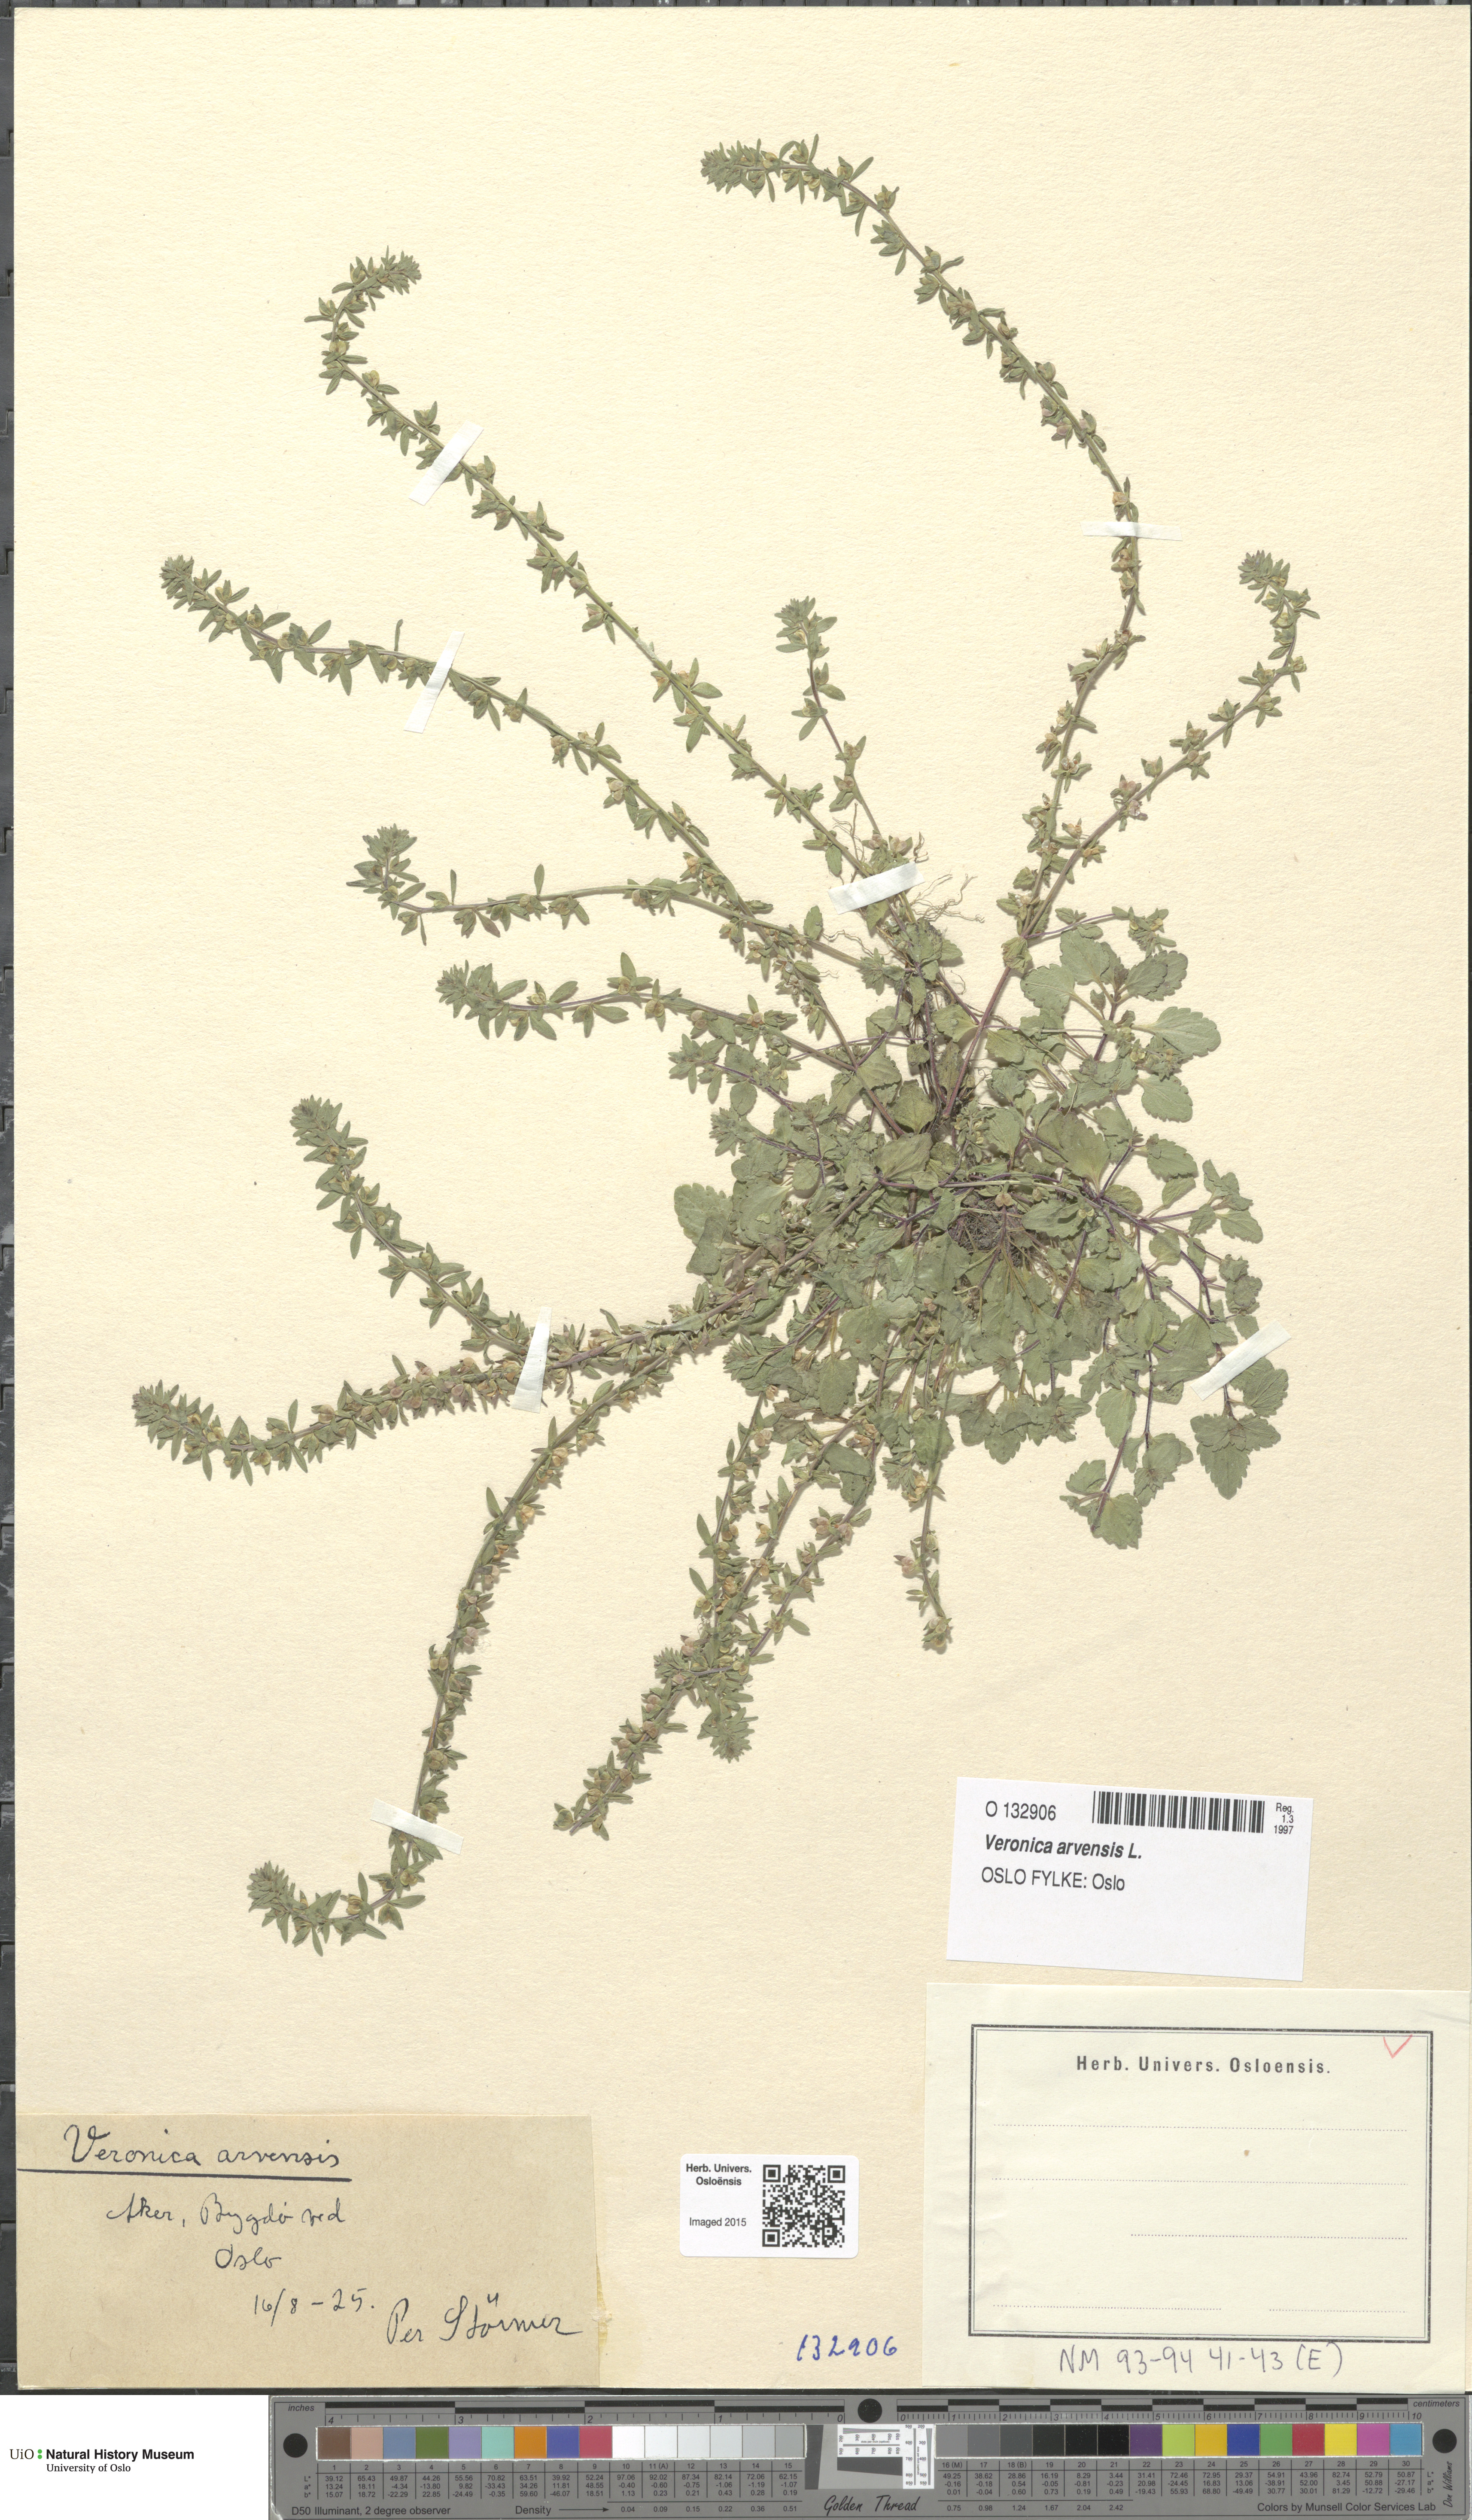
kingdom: Plantae
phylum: Tracheophyta
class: Magnoliopsida
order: Lamiales
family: Plantaginaceae
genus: Veronica
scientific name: Veronica arvensis
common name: Corn speedwell
